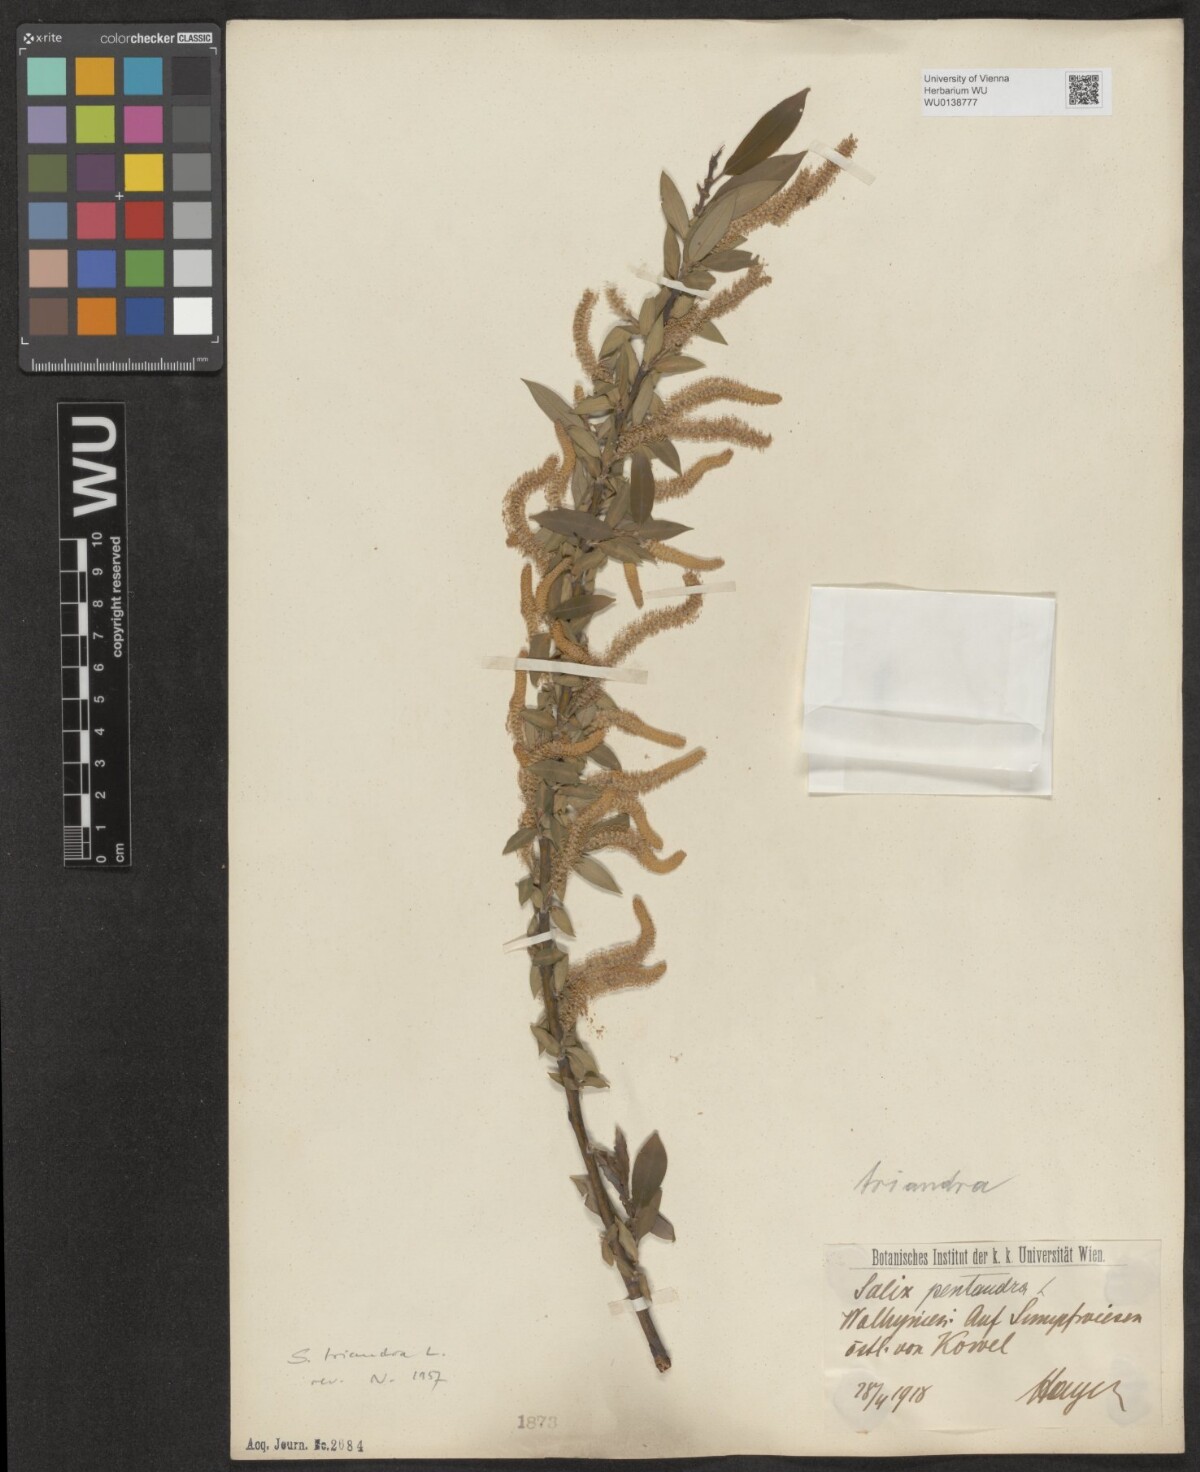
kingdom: Plantae
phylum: Tracheophyta
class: Magnoliopsida
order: Malpighiales
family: Salicaceae
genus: Salix
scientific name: Salix triandra
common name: Almond willow
